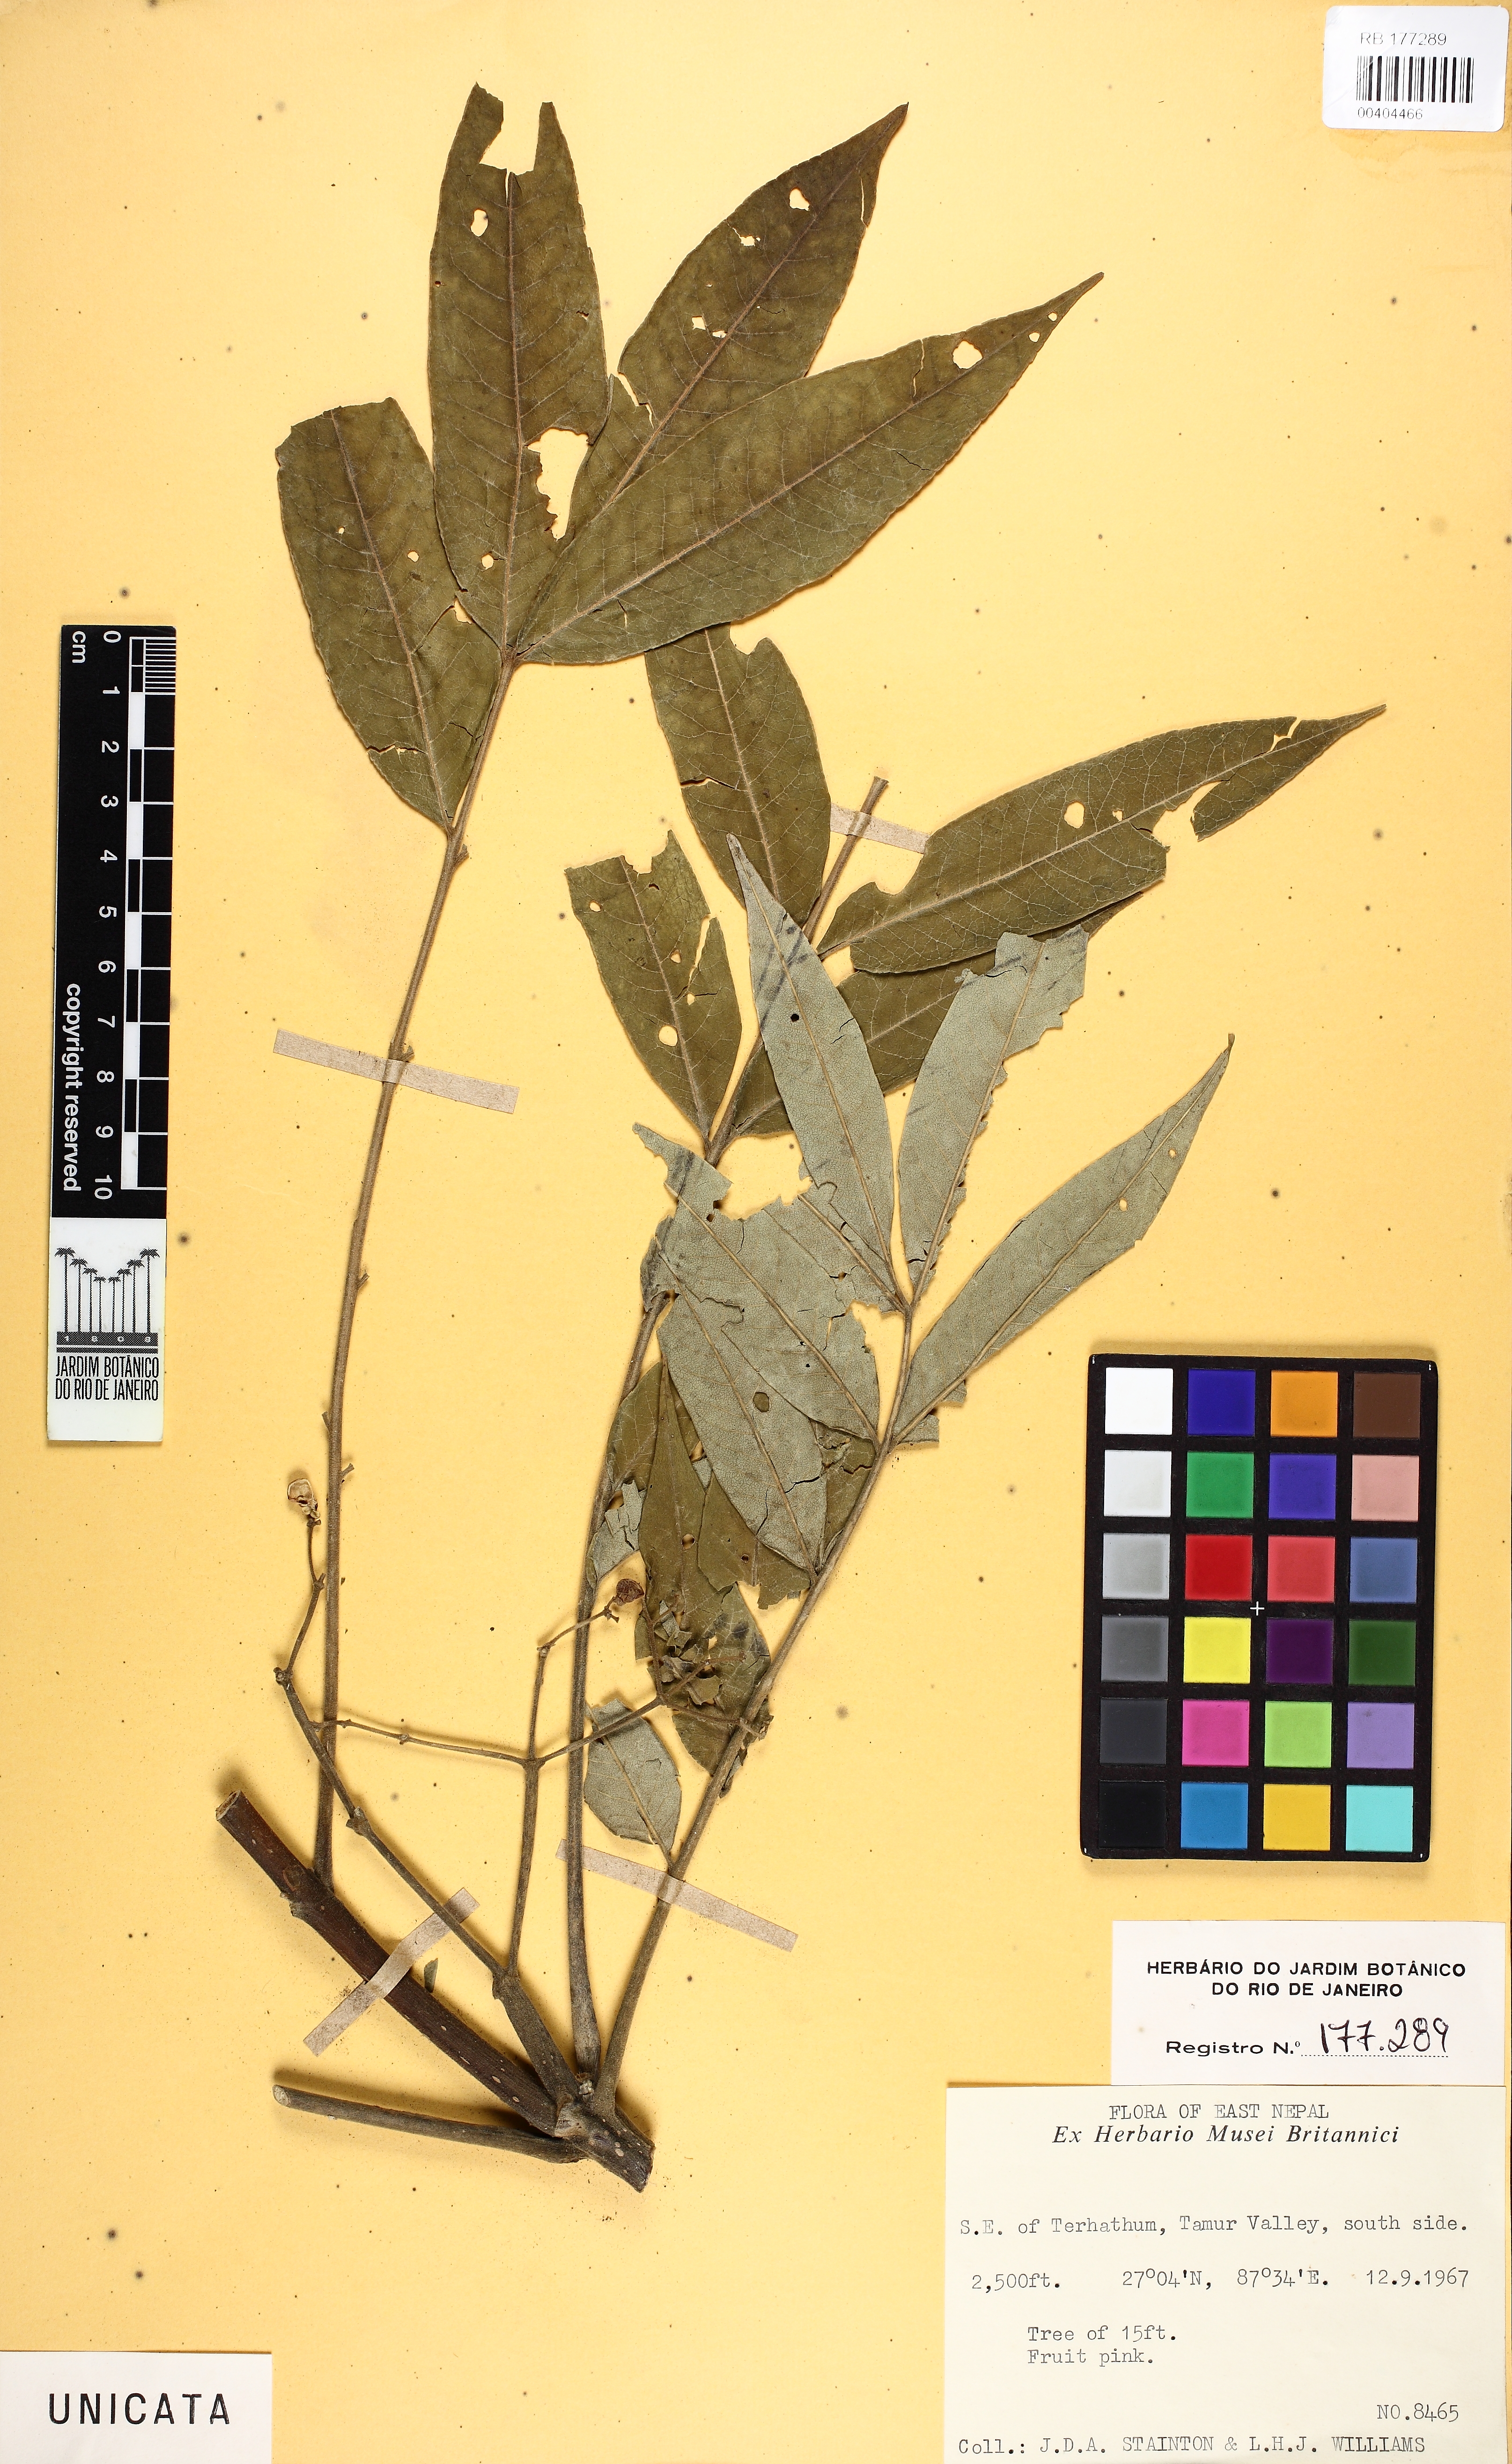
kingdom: Plantae
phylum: Tracheophyta
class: Magnoliopsida
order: Sapindales
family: Rutaceae
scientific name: Rutaceae
